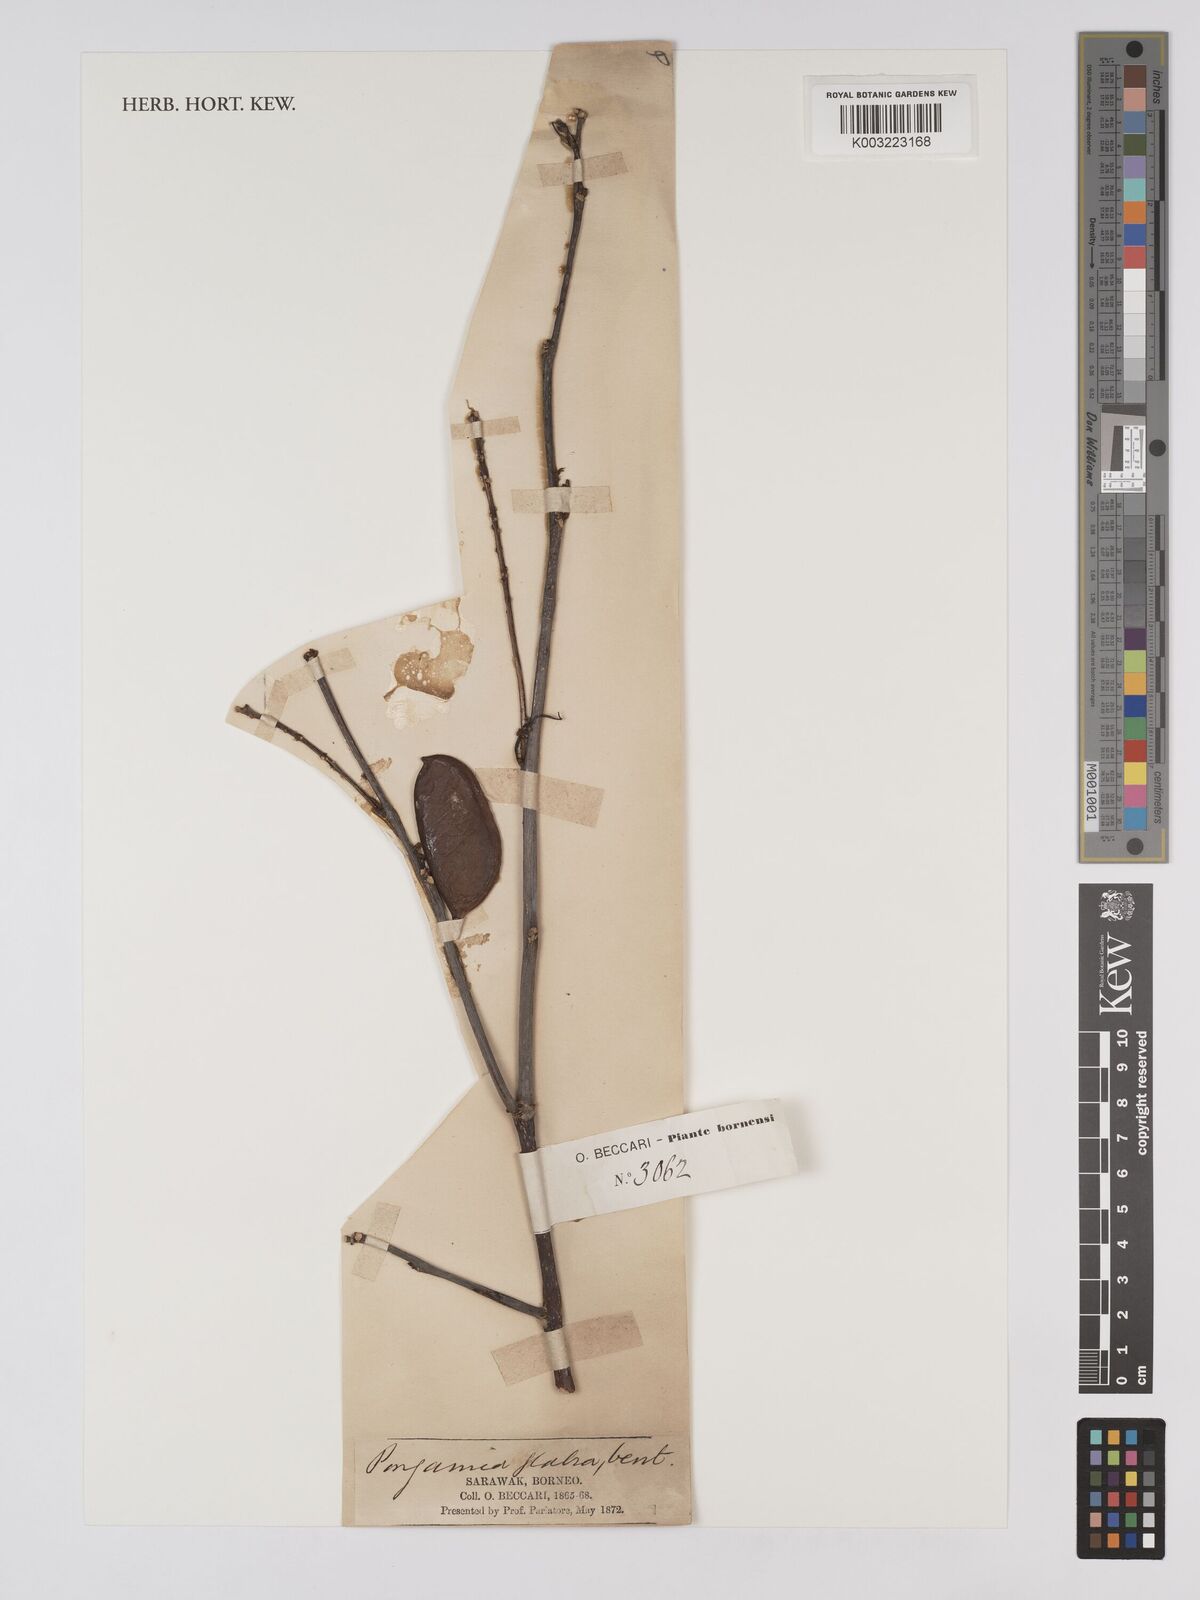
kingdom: Plantae
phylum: Tracheophyta
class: Magnoliopsida
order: Fabales
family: Fabaceae
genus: Pongamia
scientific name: Pongamia pinnata
